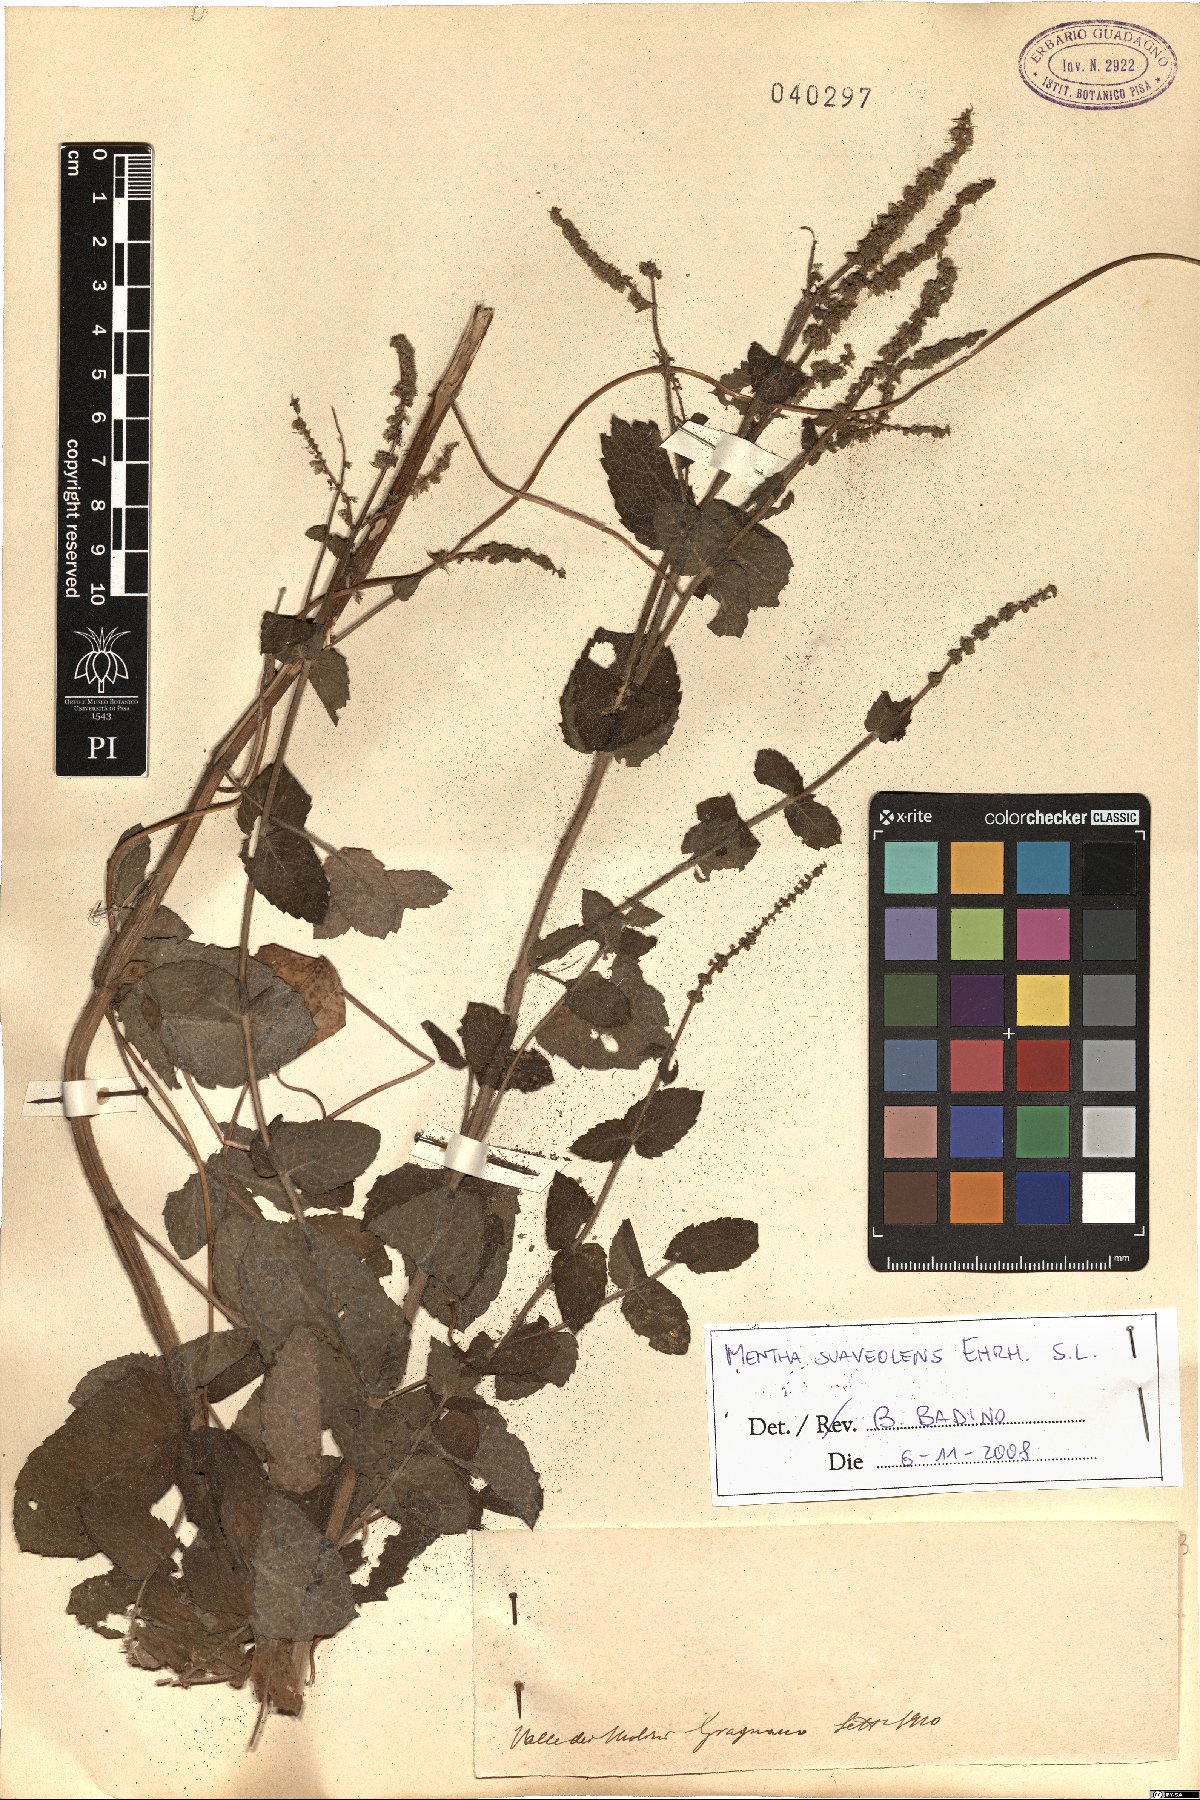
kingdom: Plantae
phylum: Tracheophyta
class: Magnoliopsida
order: Lamiales
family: Lamiaceae
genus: Mentha
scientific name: Mentha suaveolens
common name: Apple mint
